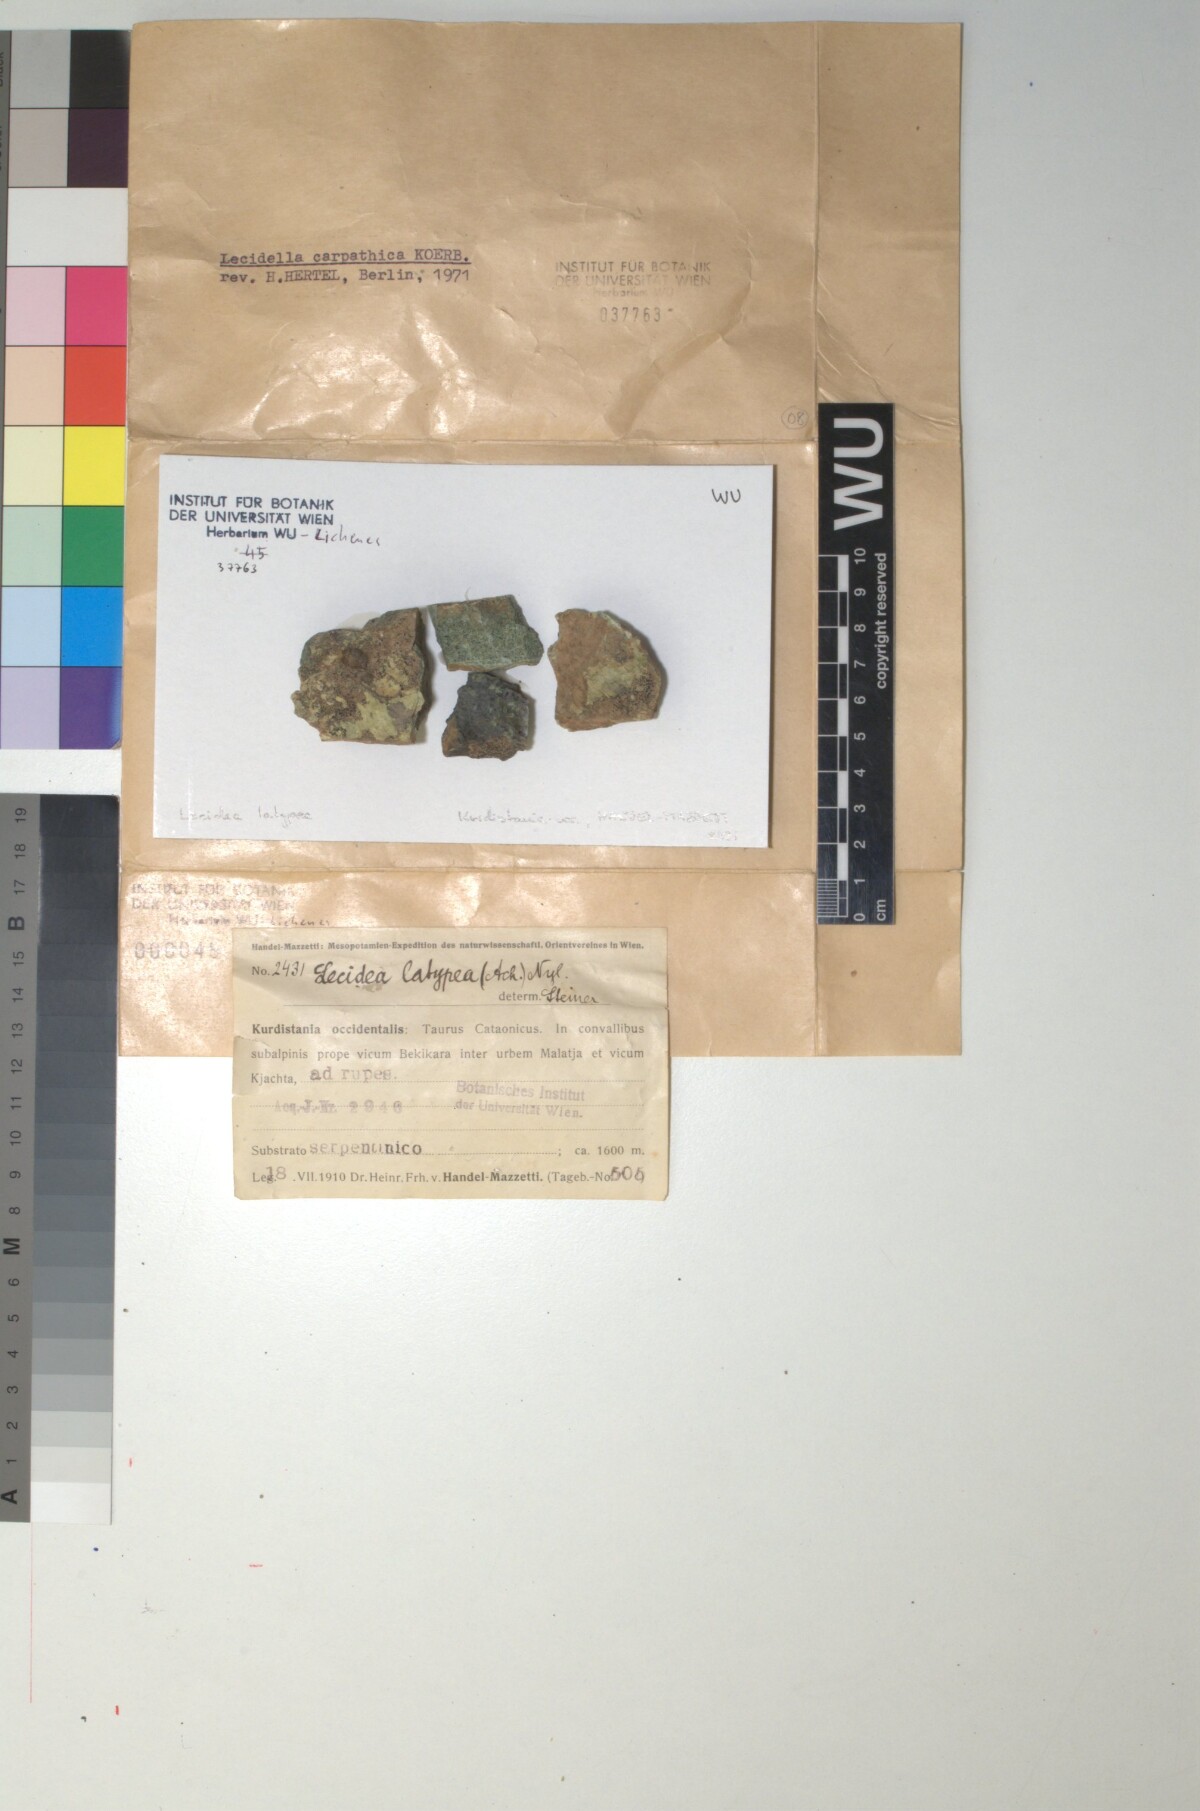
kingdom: Fungi
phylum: Ascomycota
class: Lecanoromycetes
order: Lecanorales
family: Lecanoraceae
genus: Lecidella
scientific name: Lecidella carpathica
